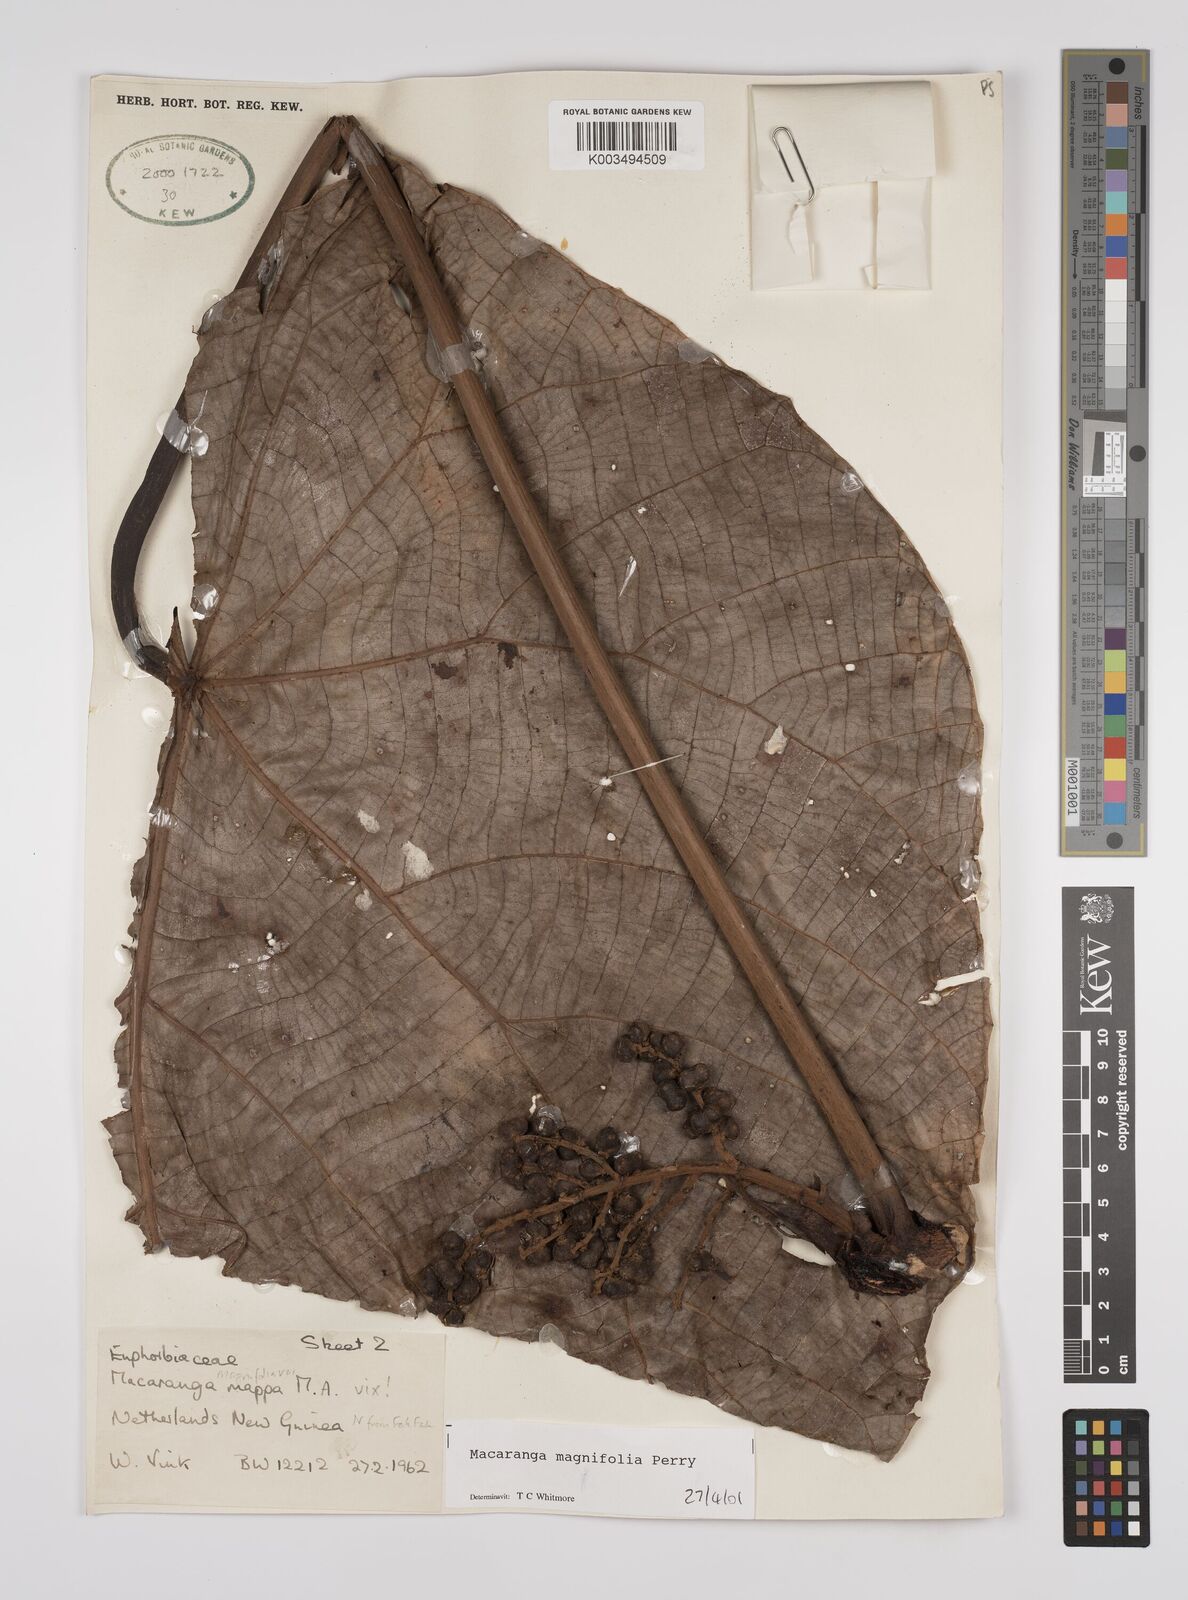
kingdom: Plantae
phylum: Tracheophyta
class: Magnoliopsida
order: Malpighiales
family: Euphorbiaceae
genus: Macaranga
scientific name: Macaranga magnifolia
